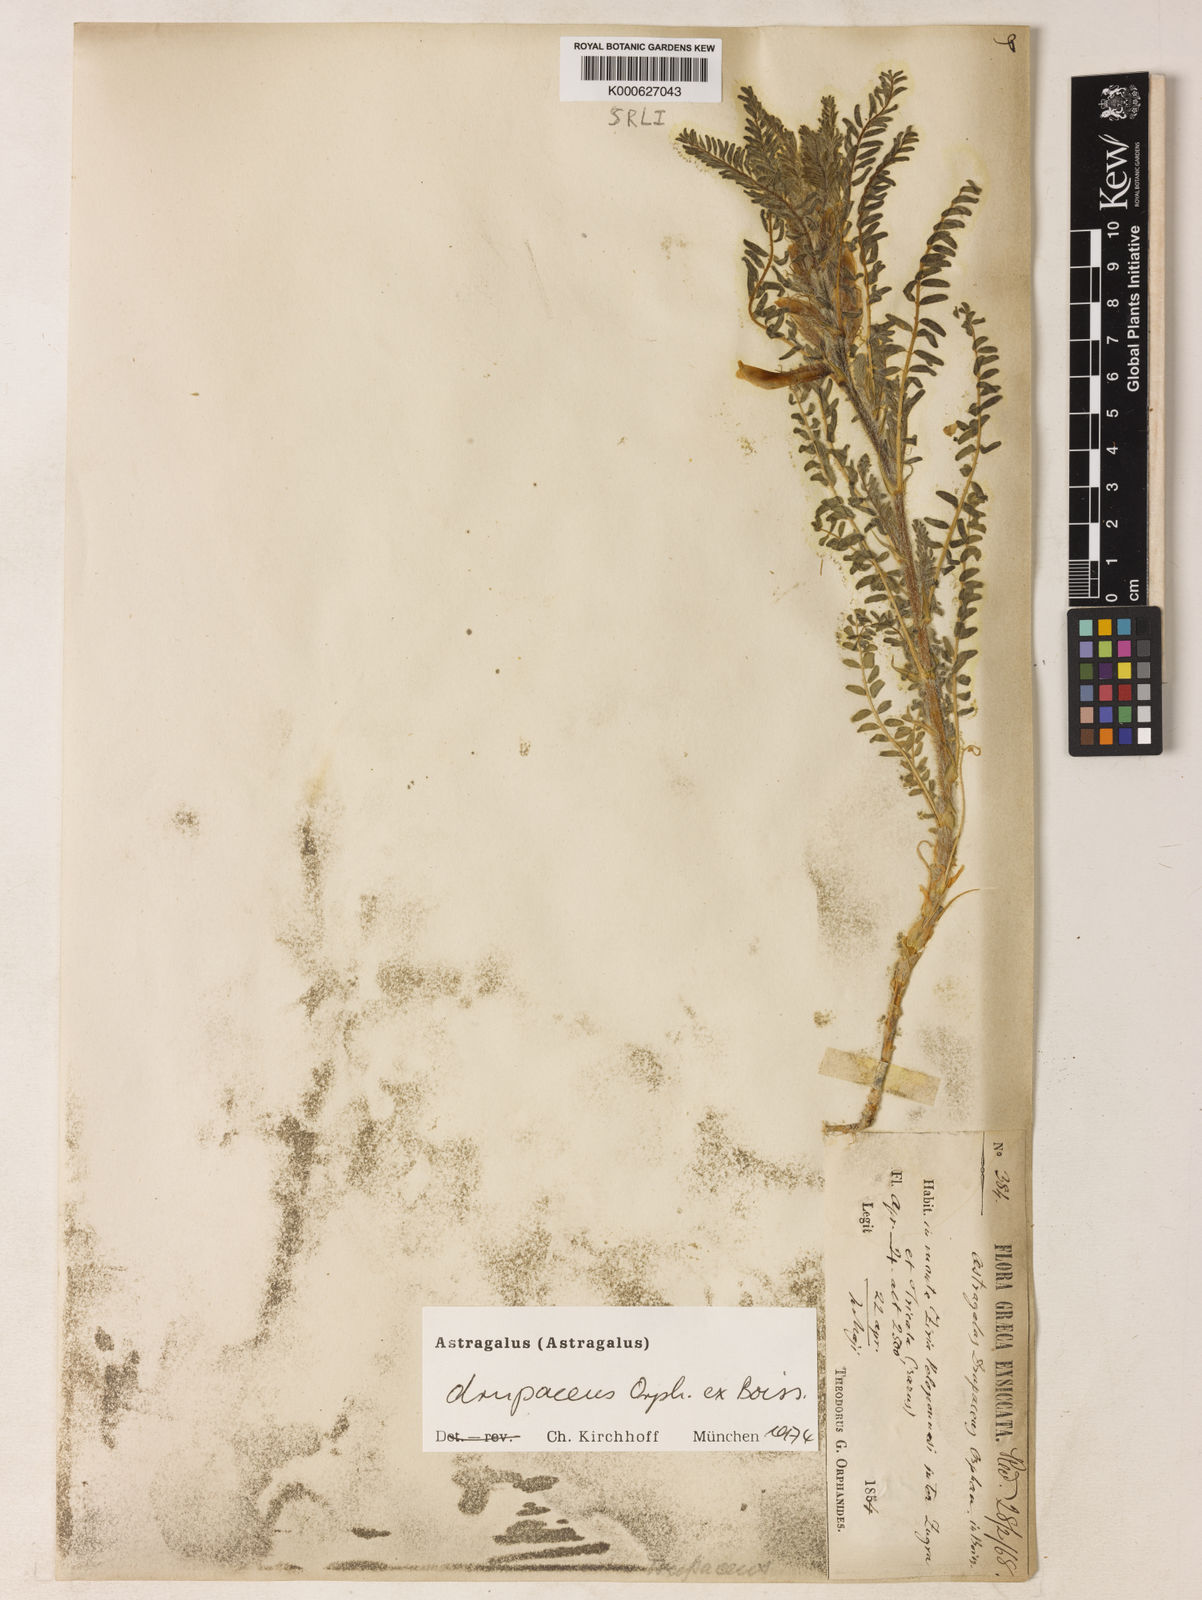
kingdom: Plantae
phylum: Tracheophyta
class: Magnoliopsida
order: Fabales
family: Fabaceae
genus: Astragalus
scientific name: Astragalus drupaceus
